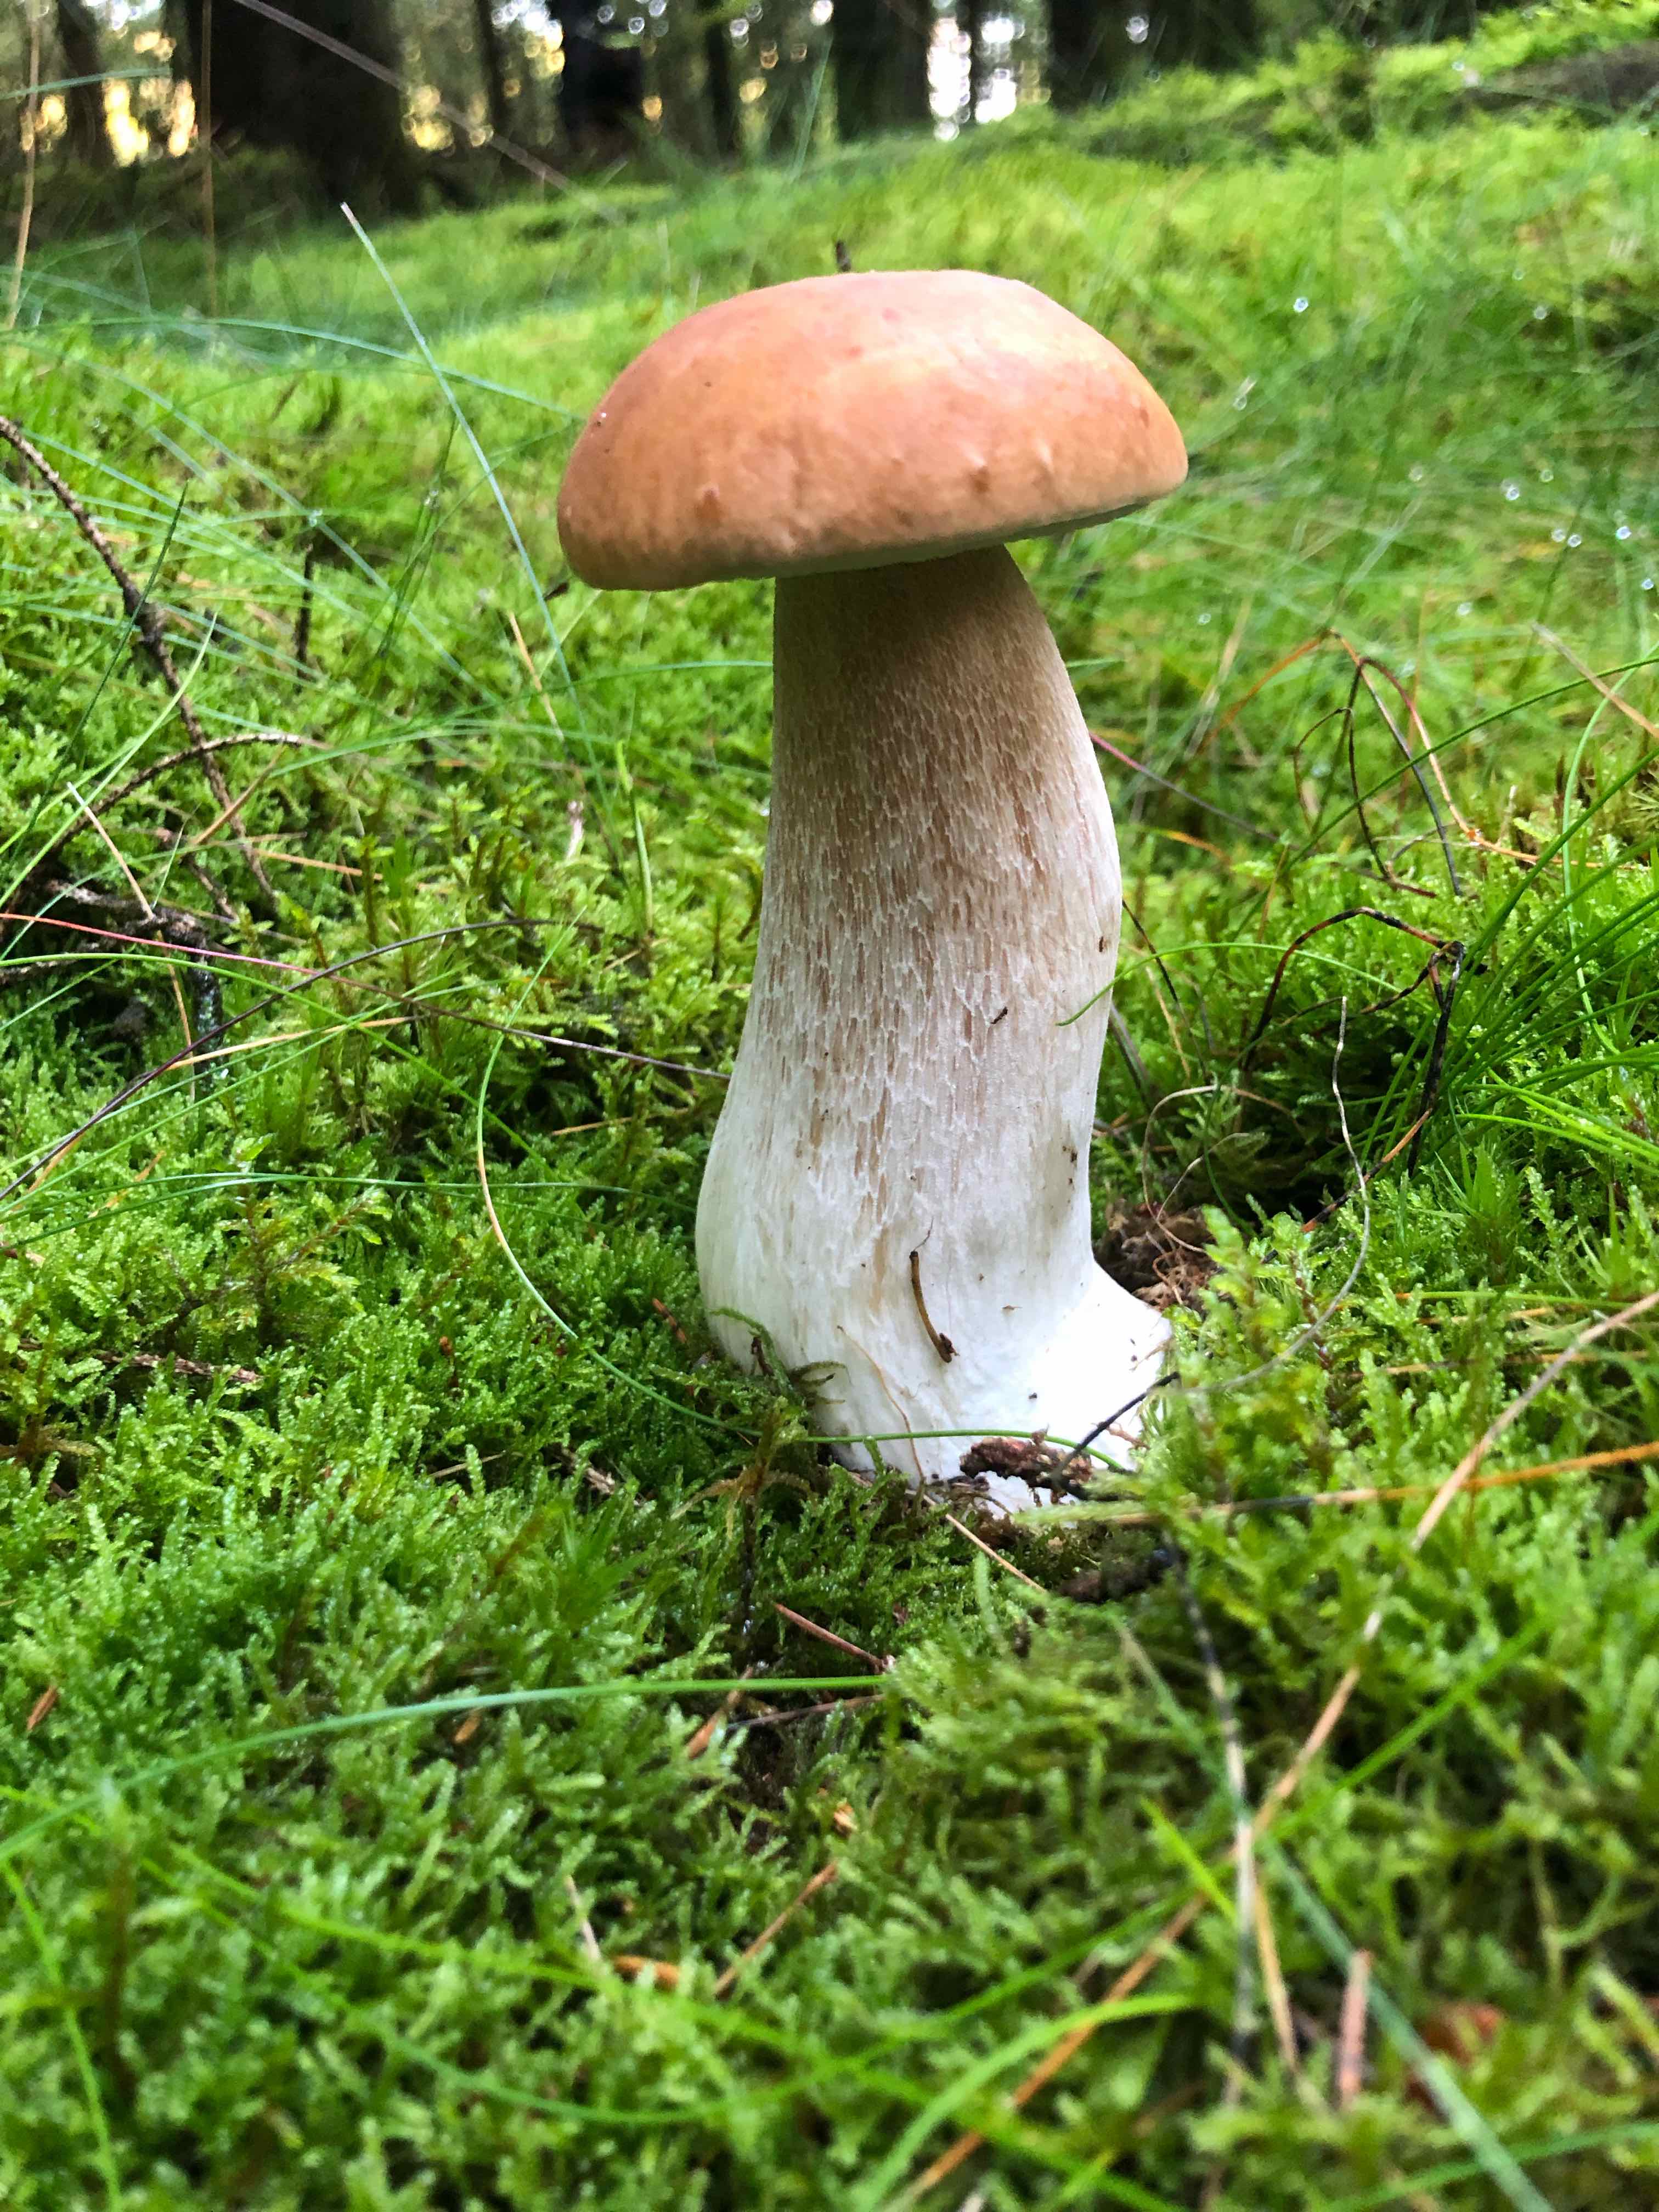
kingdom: Fungi
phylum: Basidiomycota
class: Agaricomycetes
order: Boletales
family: Boletaceae
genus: Boletus
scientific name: Boletus edulis
